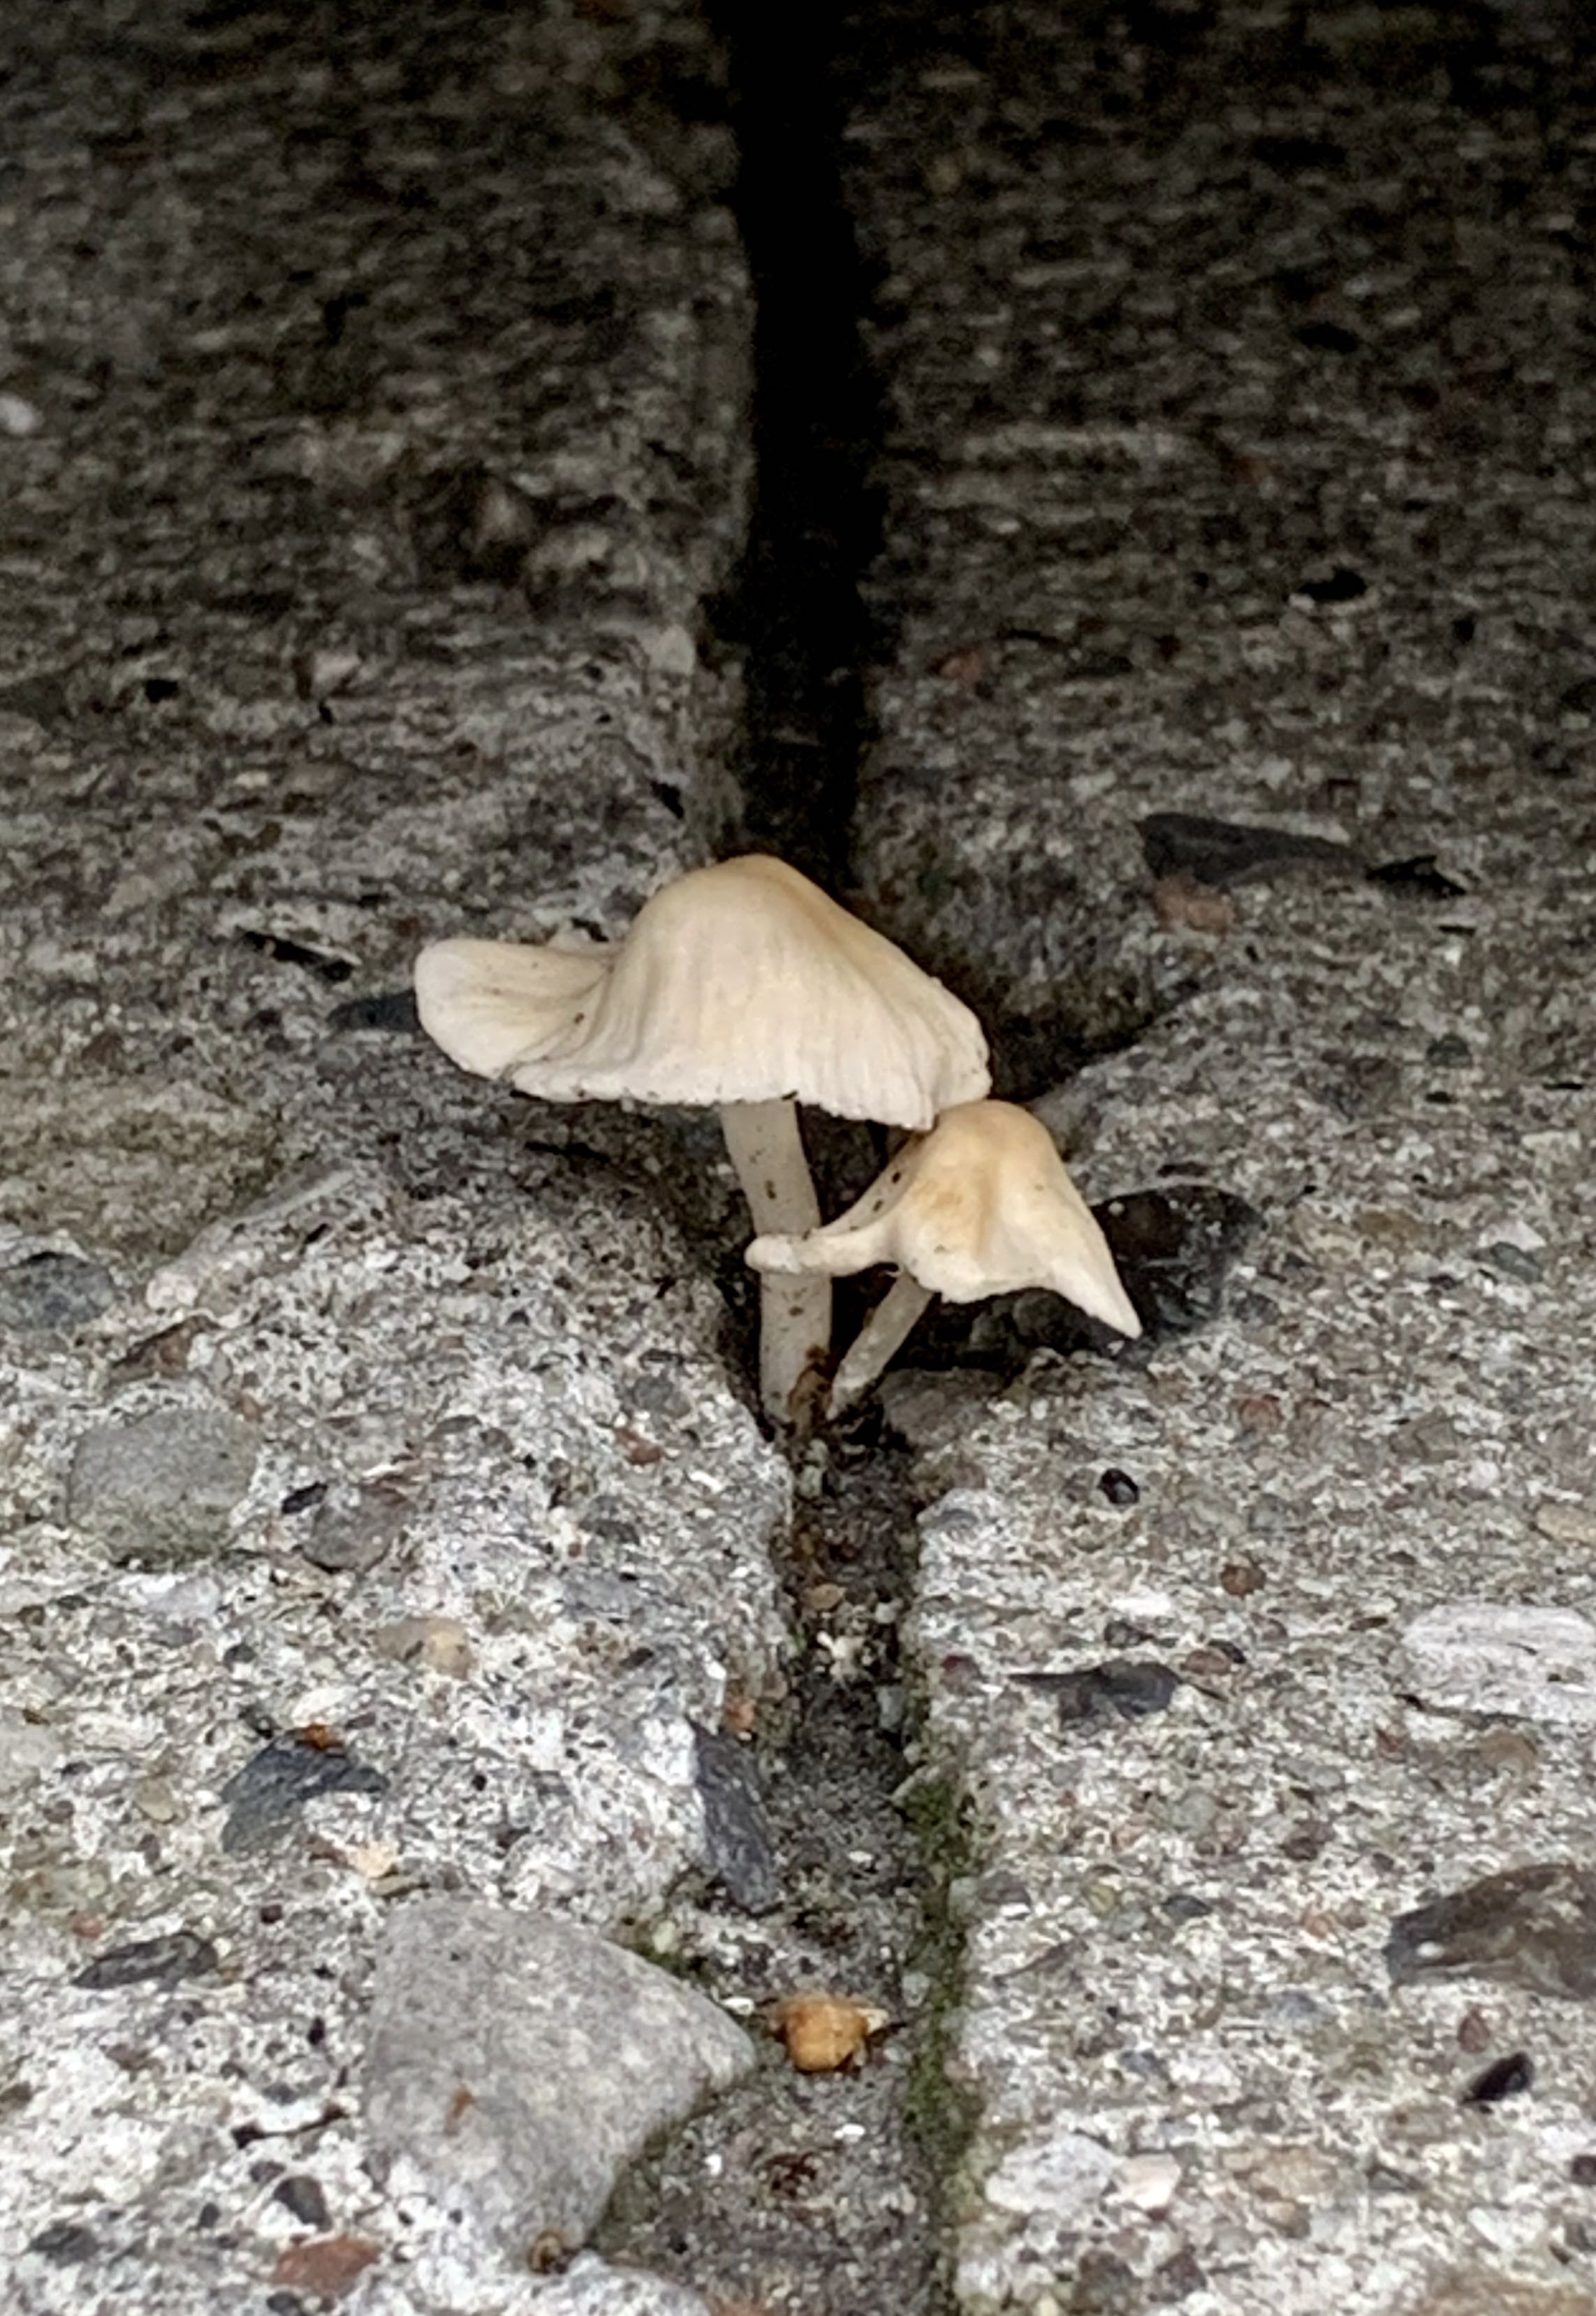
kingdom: Fungi
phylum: Basidiomycota
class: Agaricomycetes
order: Agaricales
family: Mycenaceae
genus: Mycena
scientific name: Mycena galericulata
